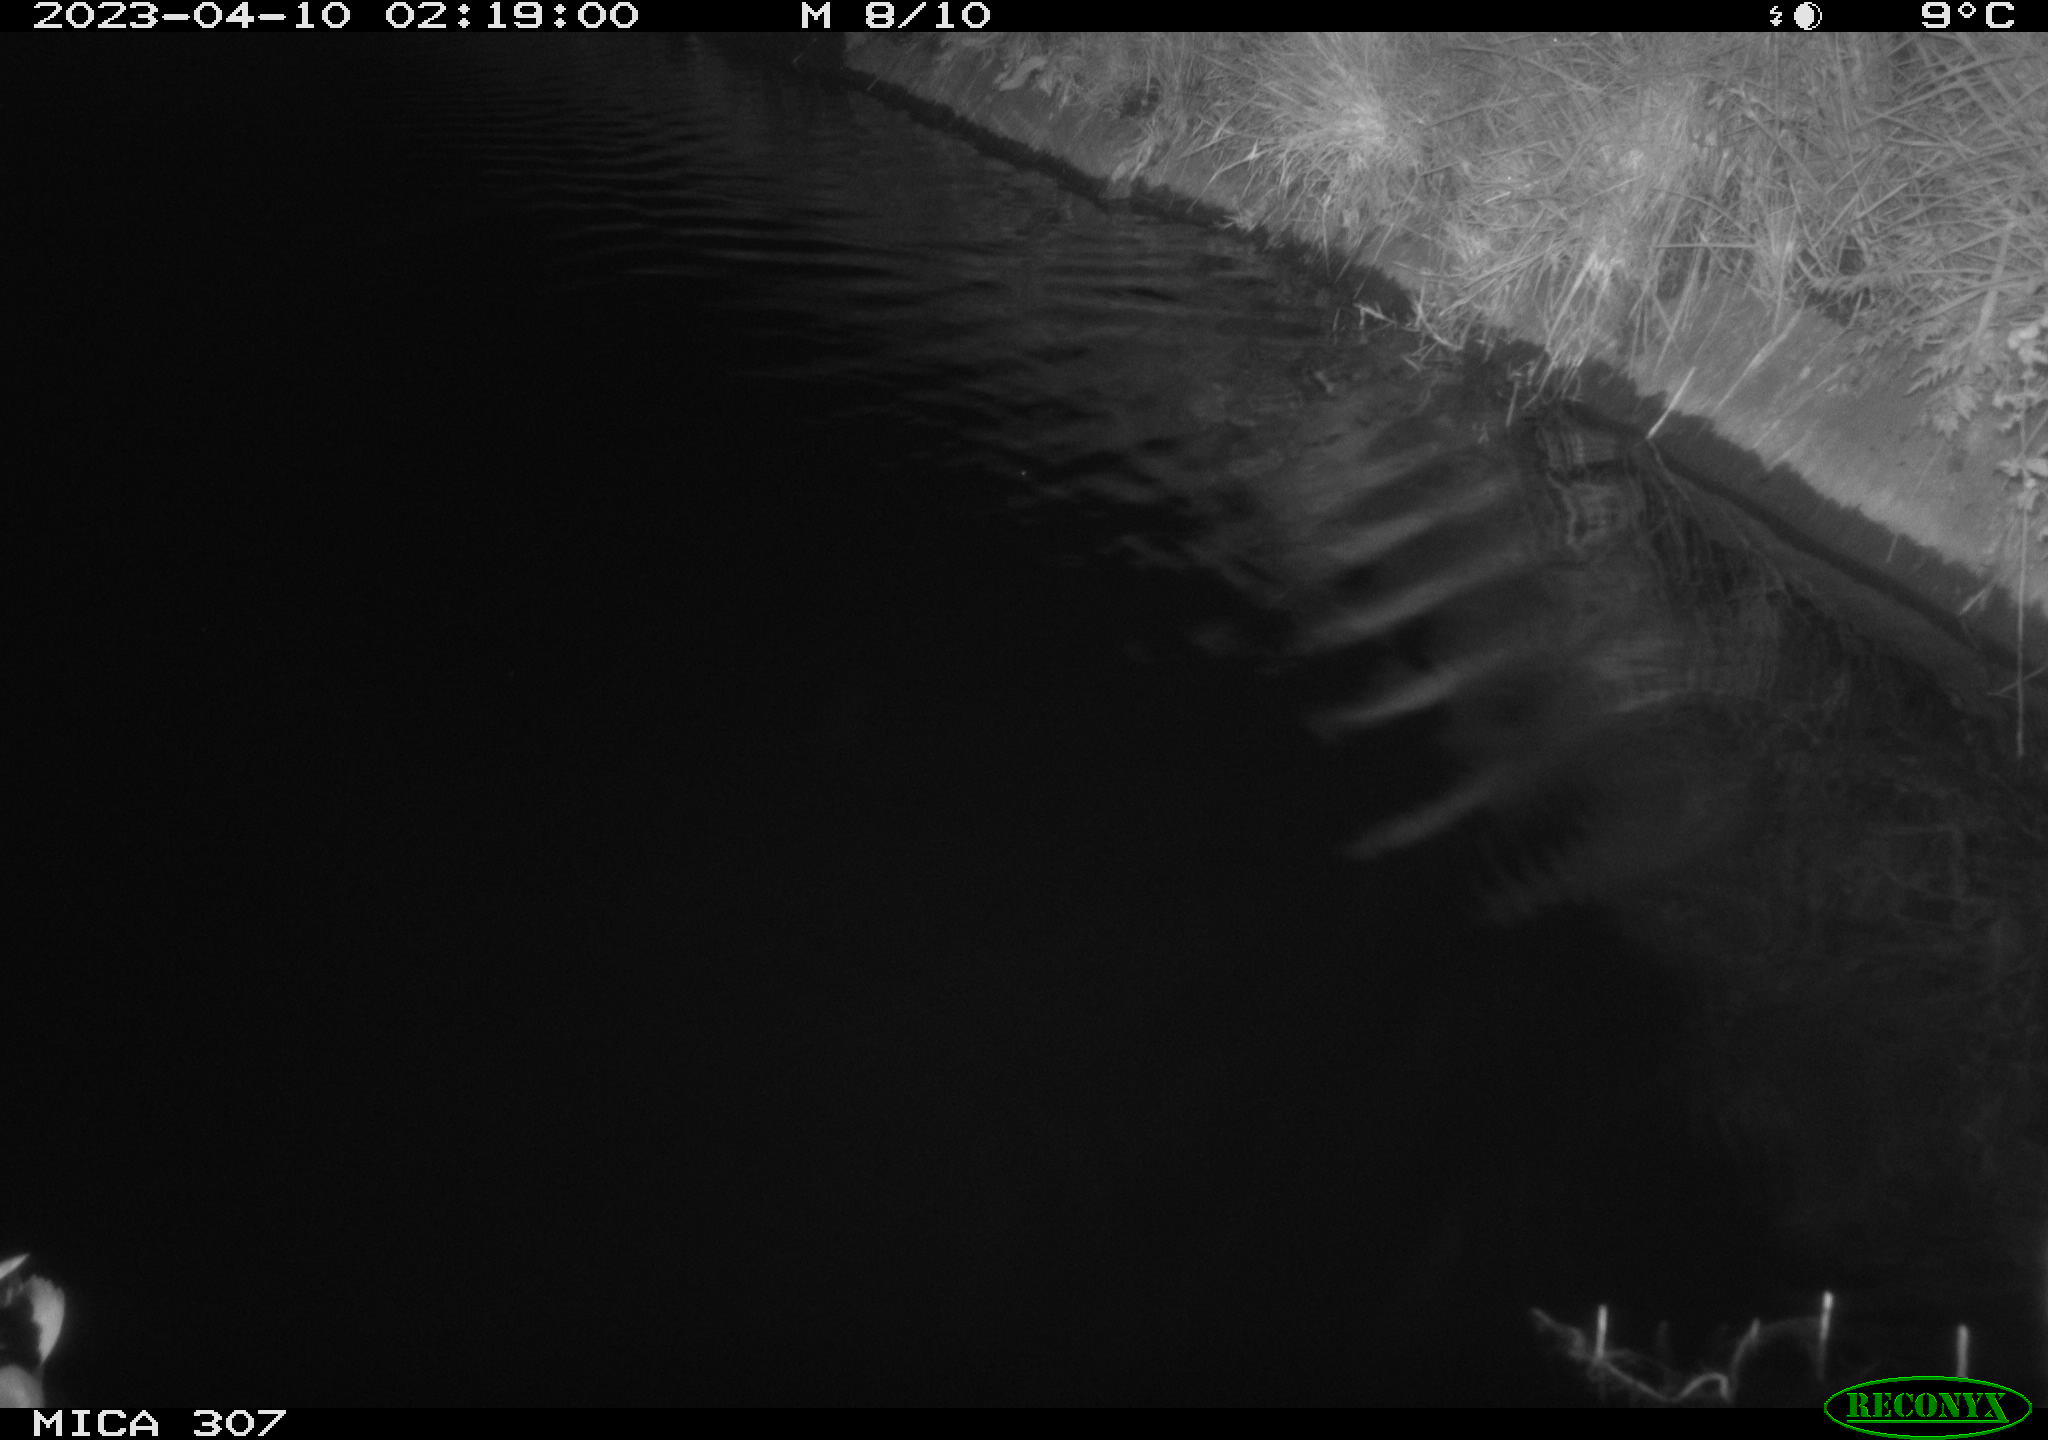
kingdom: Animalia
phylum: Chordata
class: Mammalia
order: Rodentia
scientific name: Rodentia
